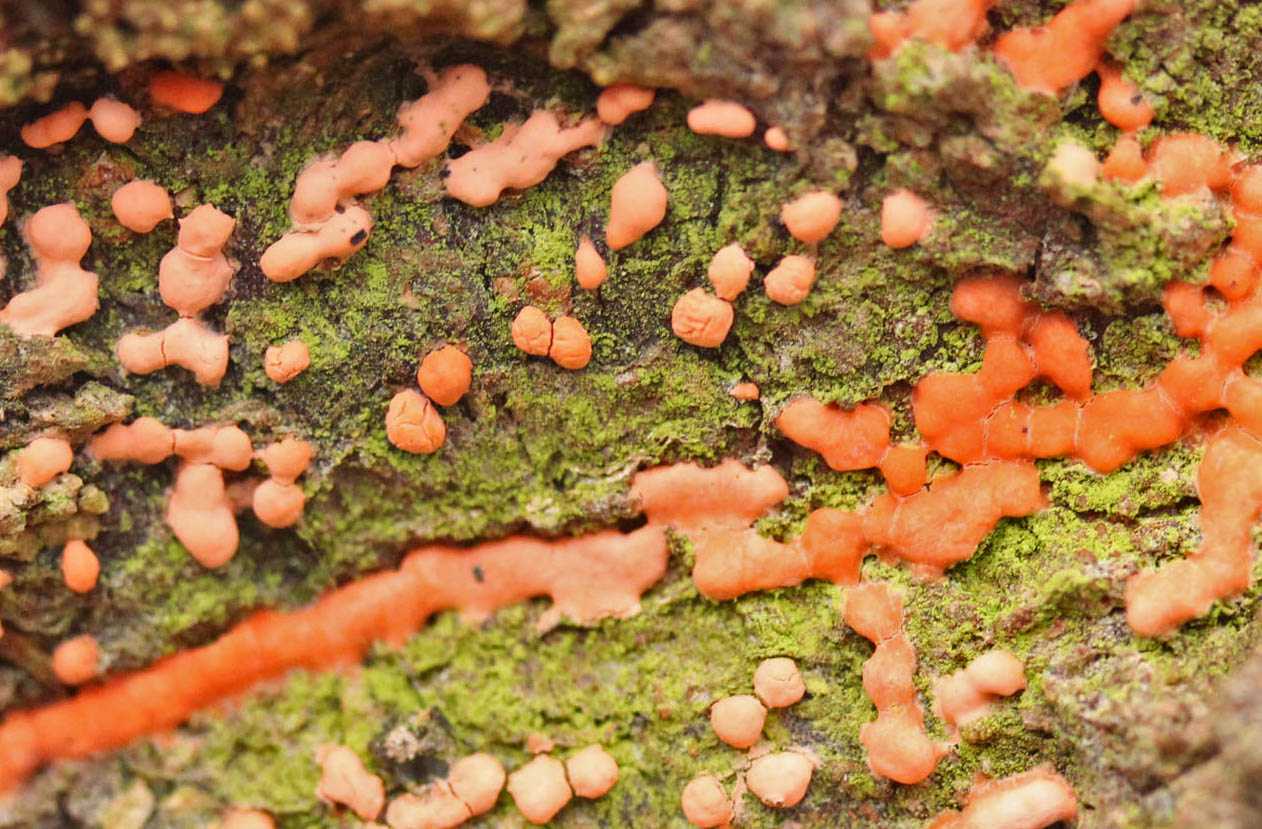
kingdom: Fungi
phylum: Ascomycota
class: Sordariomycetes
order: Hypocreales
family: Nectriaceae
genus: Neonectria
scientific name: Neonectria coccinea
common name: bøgebark-cinnobersvamp
